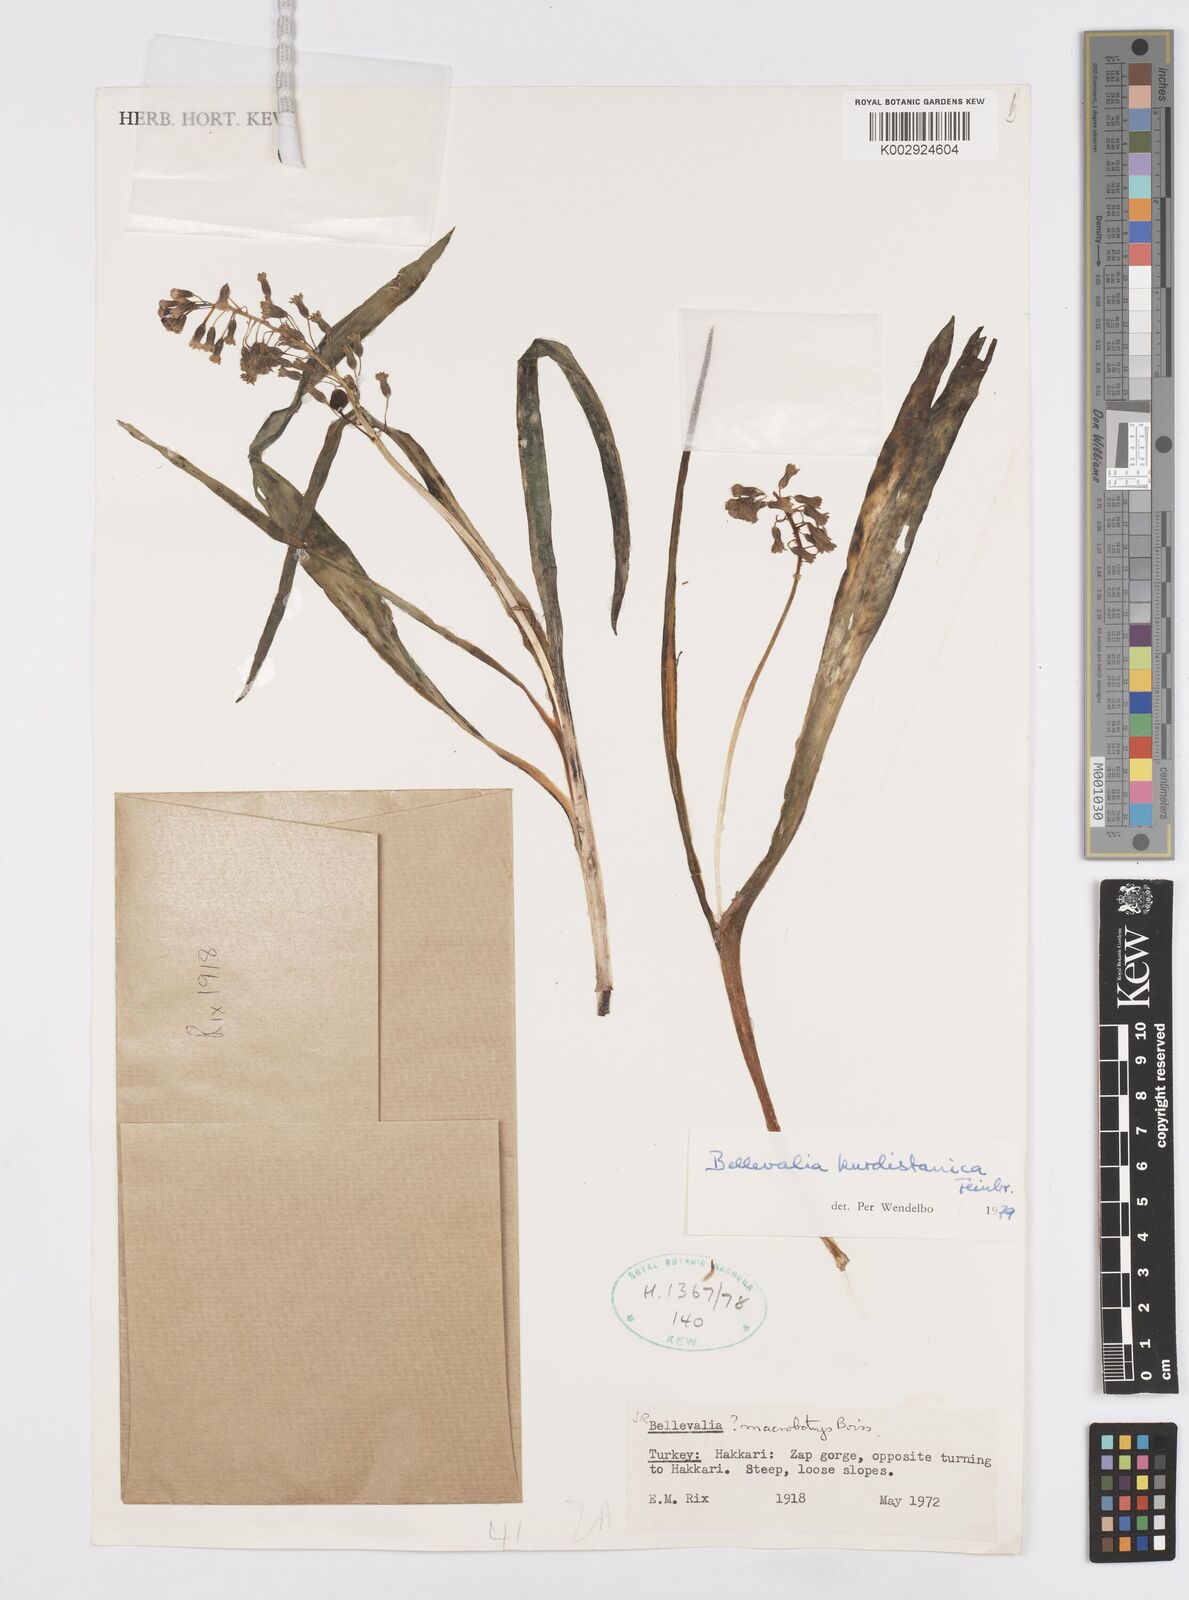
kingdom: Plantae
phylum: Tracheophyta
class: Liliopsida
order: Asparagales
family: Asparagaceae
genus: Bellevalia
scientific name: Bellevalia kurdistanica
